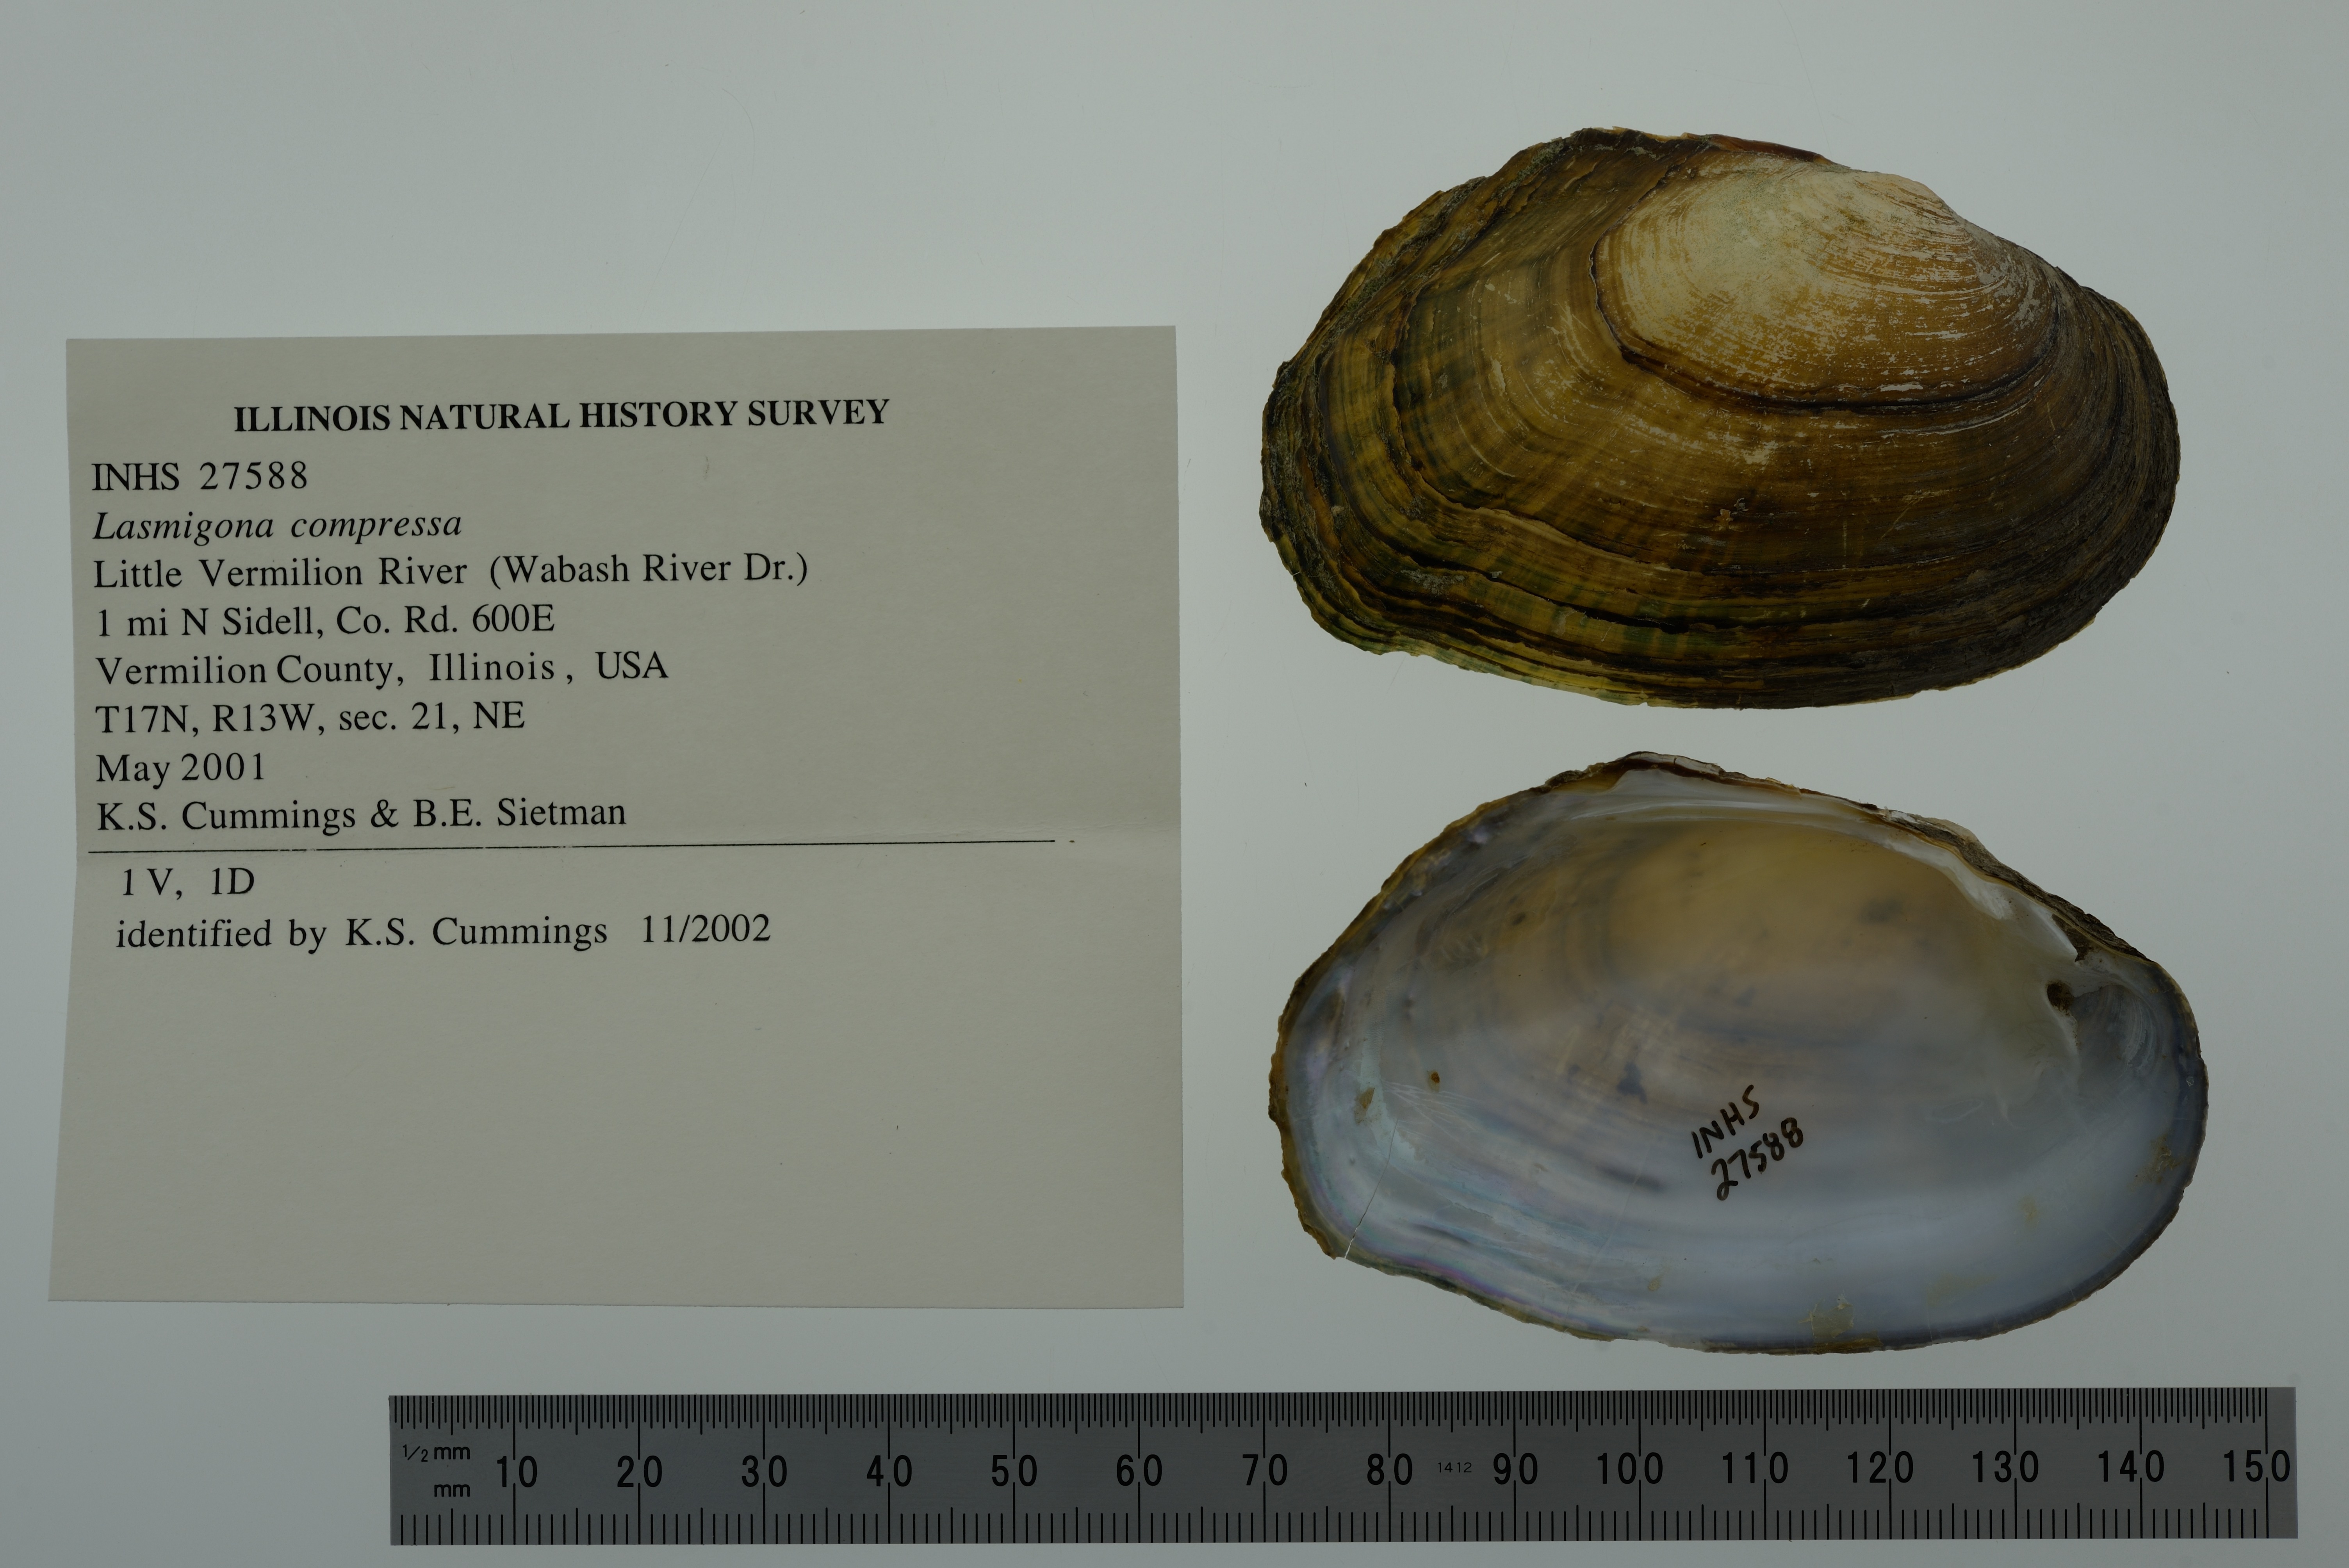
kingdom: Animalia
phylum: Mollusca
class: Bivalvia
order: Unionida
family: Unionidae
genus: Lasmigona
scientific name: Lasmigona compressa
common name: Creek heelsplitter
